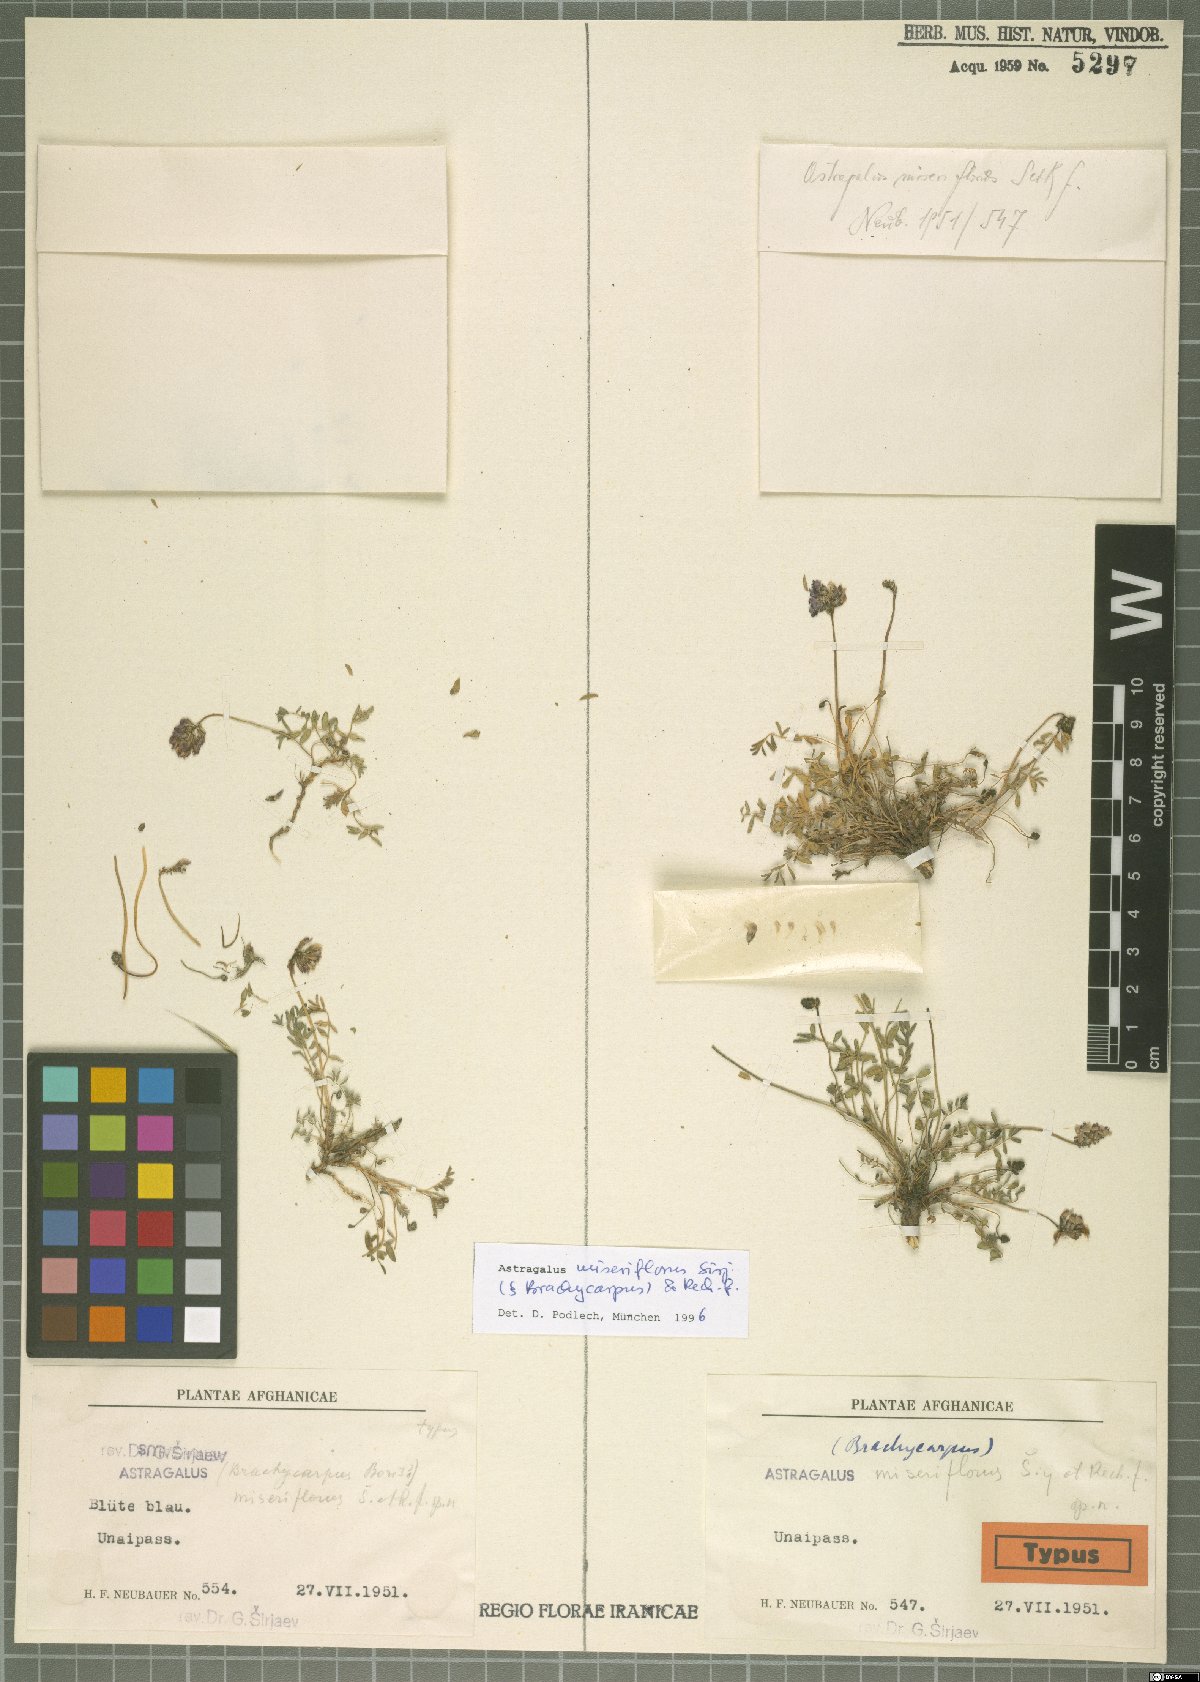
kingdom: Plantae
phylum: Tracheophyta
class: Magnoliopsida
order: Fabales
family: Fabaceae
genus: Astragalus
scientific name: Astragalus miseriflorus
